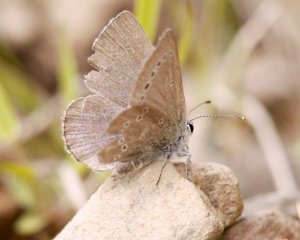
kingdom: Animalia
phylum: Arthropoda
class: Insecta
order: Lepidoptera
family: Lycaenidae
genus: Glaucopsyche
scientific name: Glaucopsyche lygdamus
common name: Silvery Blue
